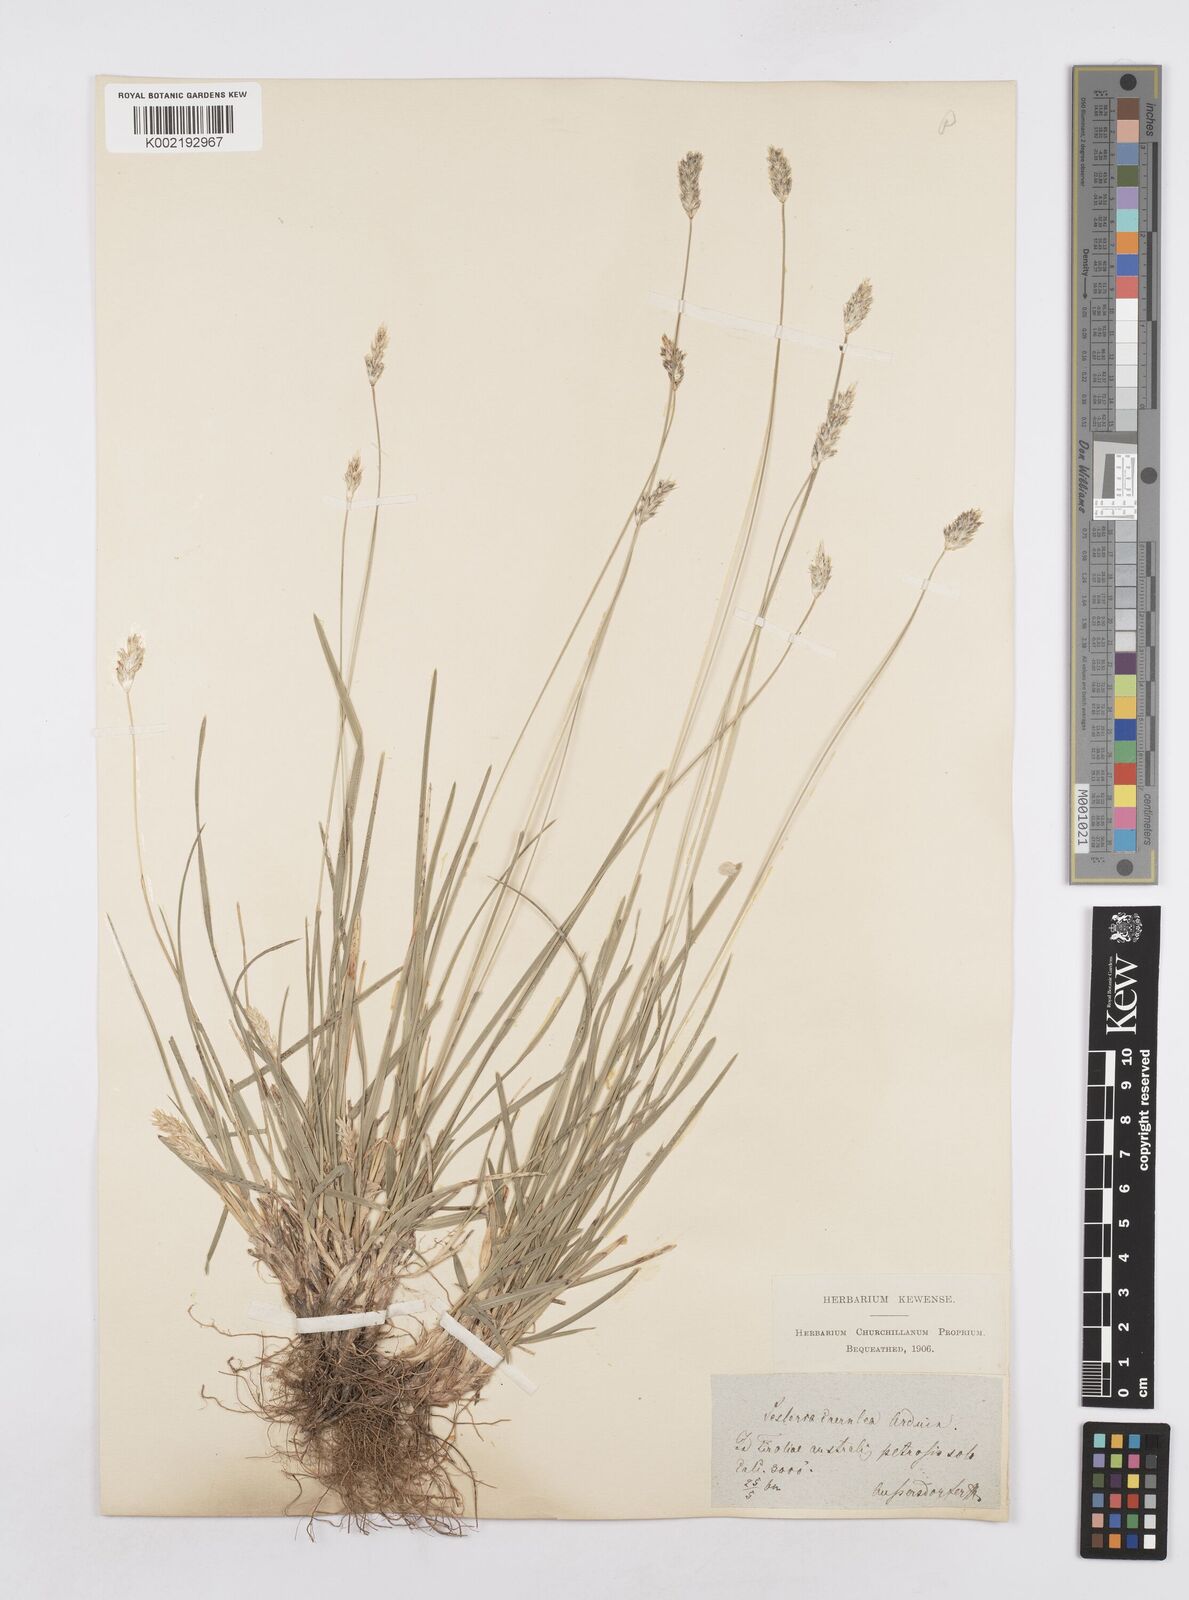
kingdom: Plantae
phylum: Tracheophyta
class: Liliopsida
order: Poales
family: Poaceae
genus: Sesleria
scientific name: Sesleria caerulea
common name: Blue moor-grass
